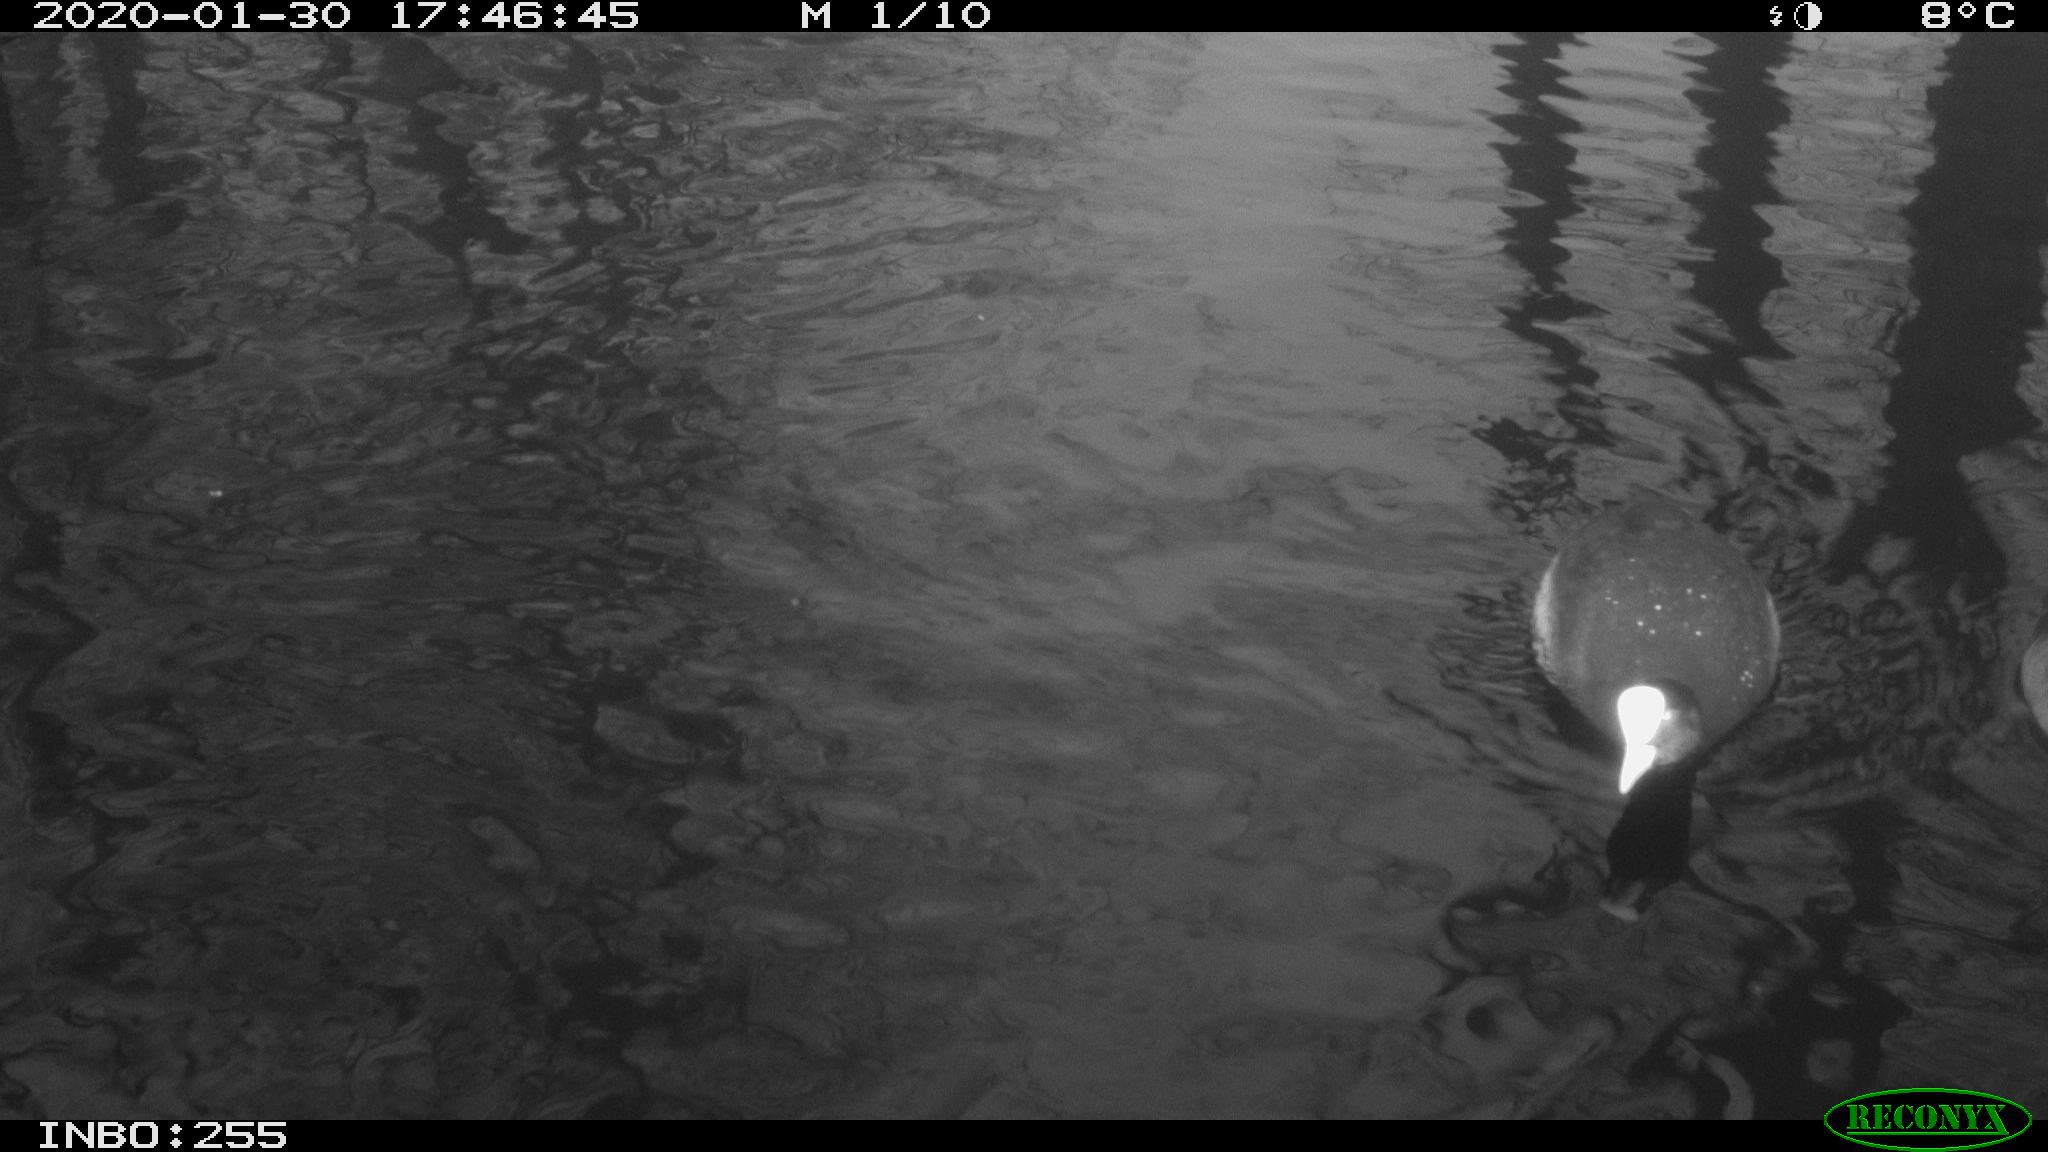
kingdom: Animalia
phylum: Chordata
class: Aves
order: Gruiformes
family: Rallidae
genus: Fulica
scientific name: Fulica atra
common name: Eurasian coot
